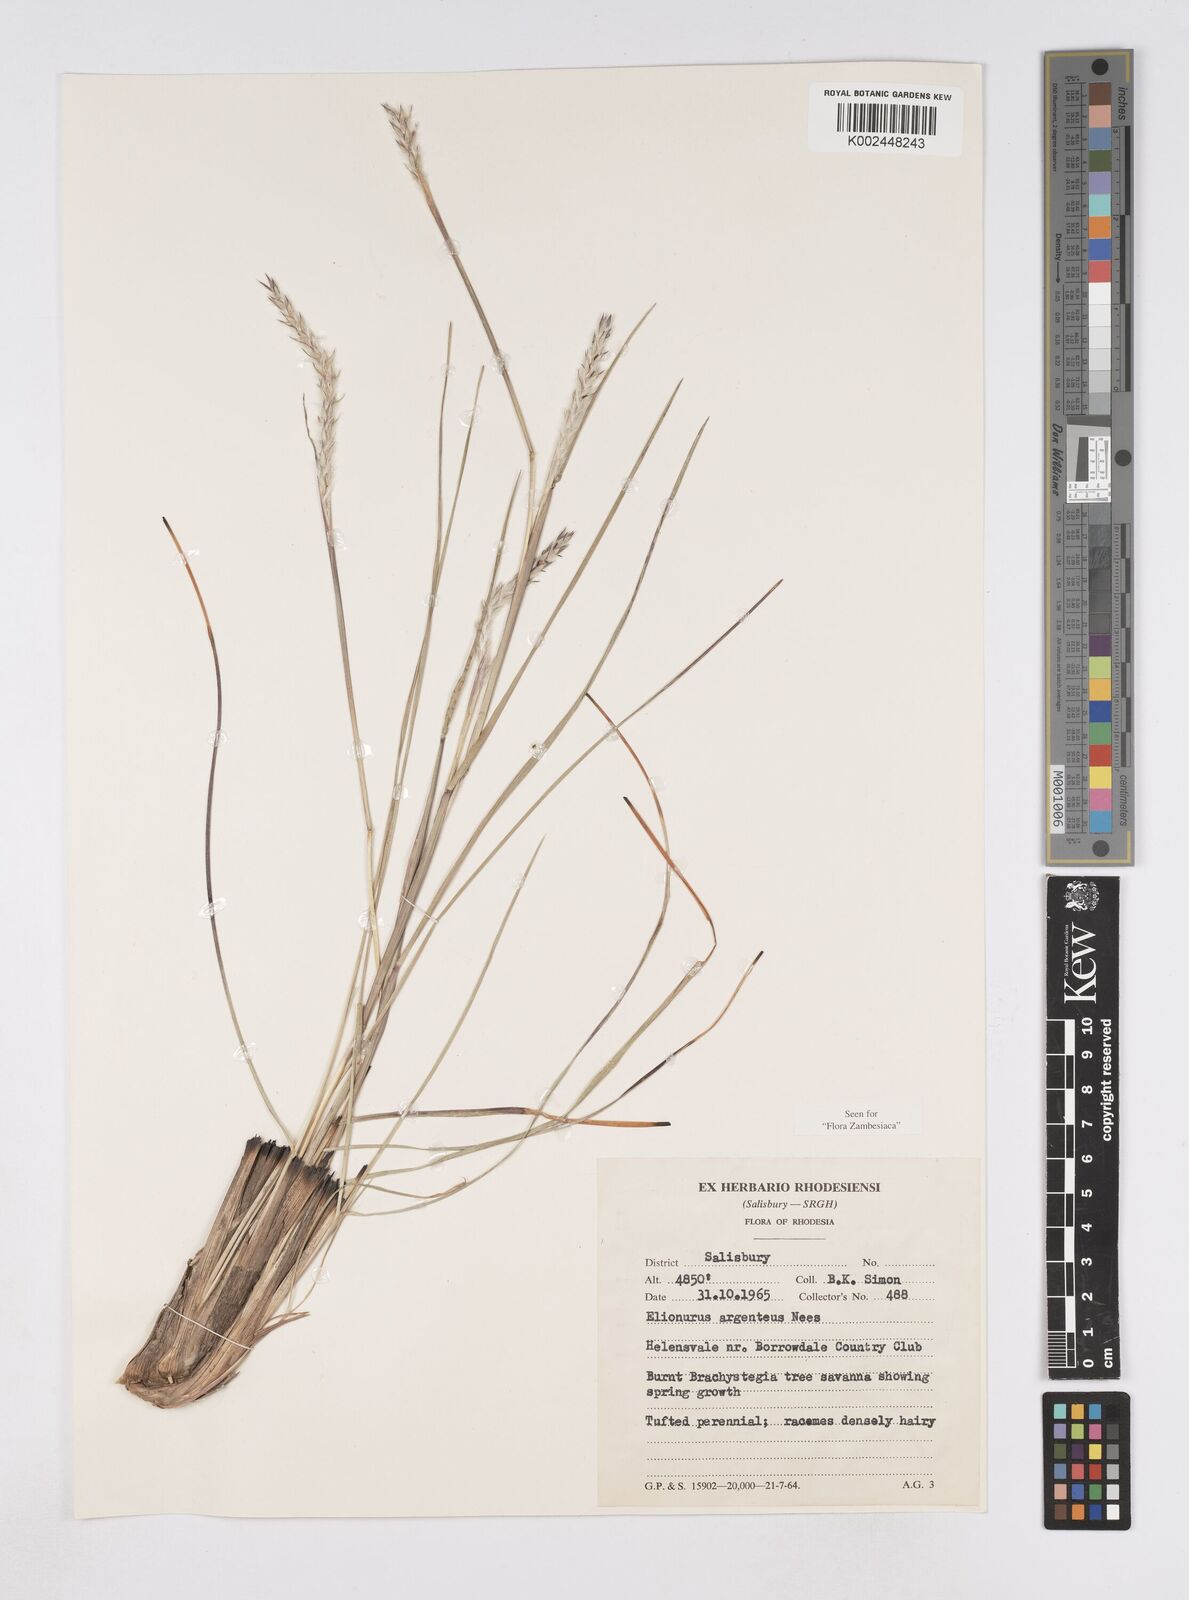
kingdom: Plantae
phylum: Tracheophyta
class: Liliopsida
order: Poales
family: Poaceae
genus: Elionurus
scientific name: Elionurus muticus
